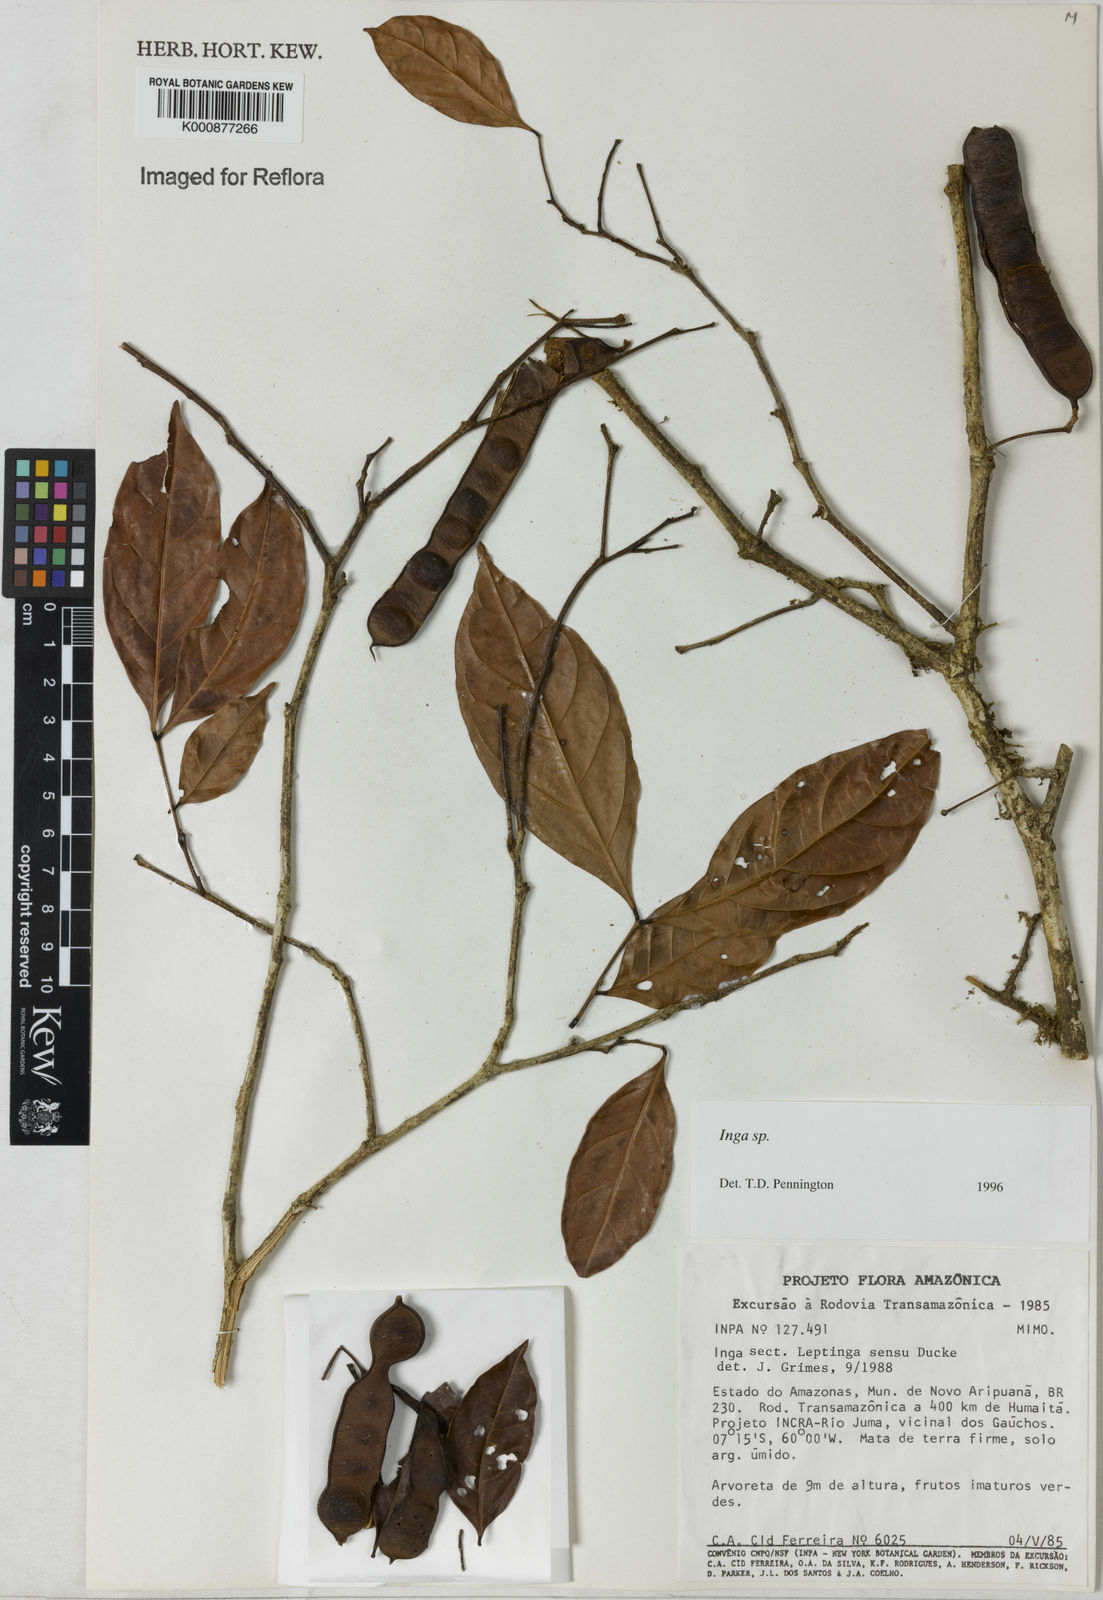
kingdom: Plantae
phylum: Tracheophyta
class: Magnoliopsida
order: Fabales
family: Fabaceae
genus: Inga
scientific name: Inga
